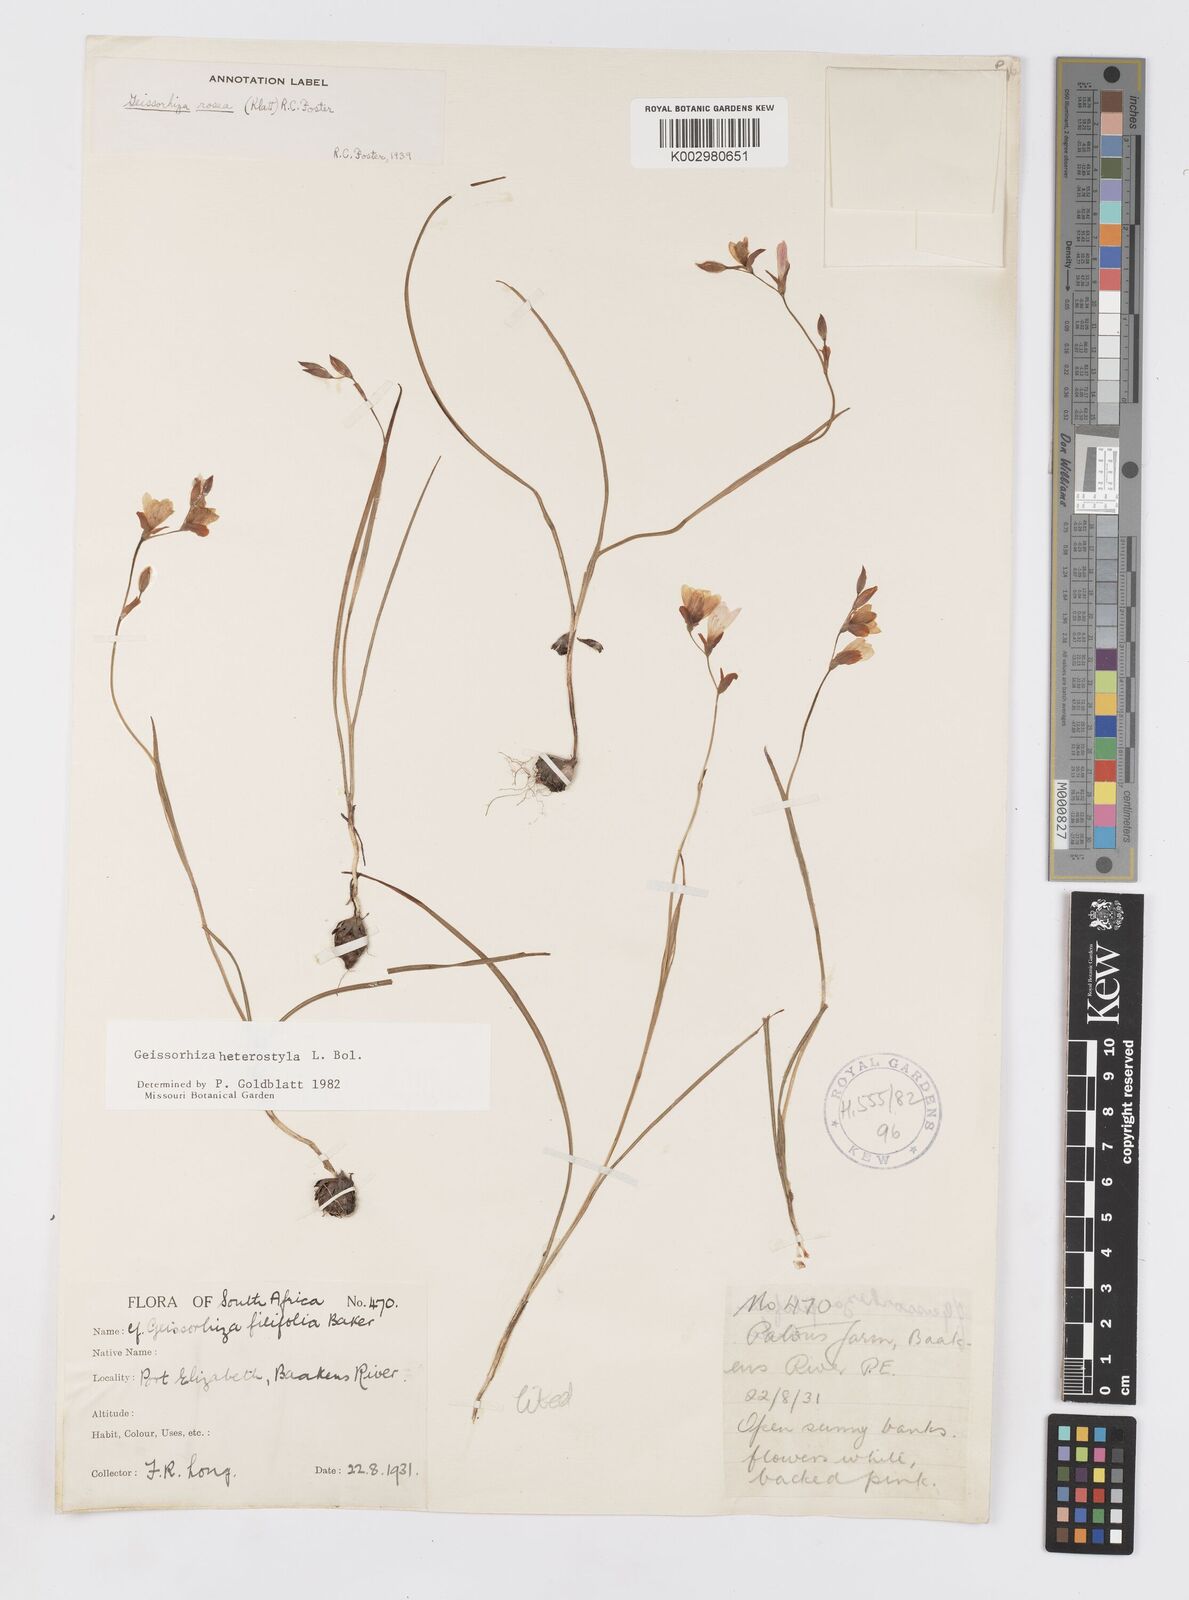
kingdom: Plantae
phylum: Tracheophyta
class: Liliopsida
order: Asparagales
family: Iridaceae
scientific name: Iridaceae
